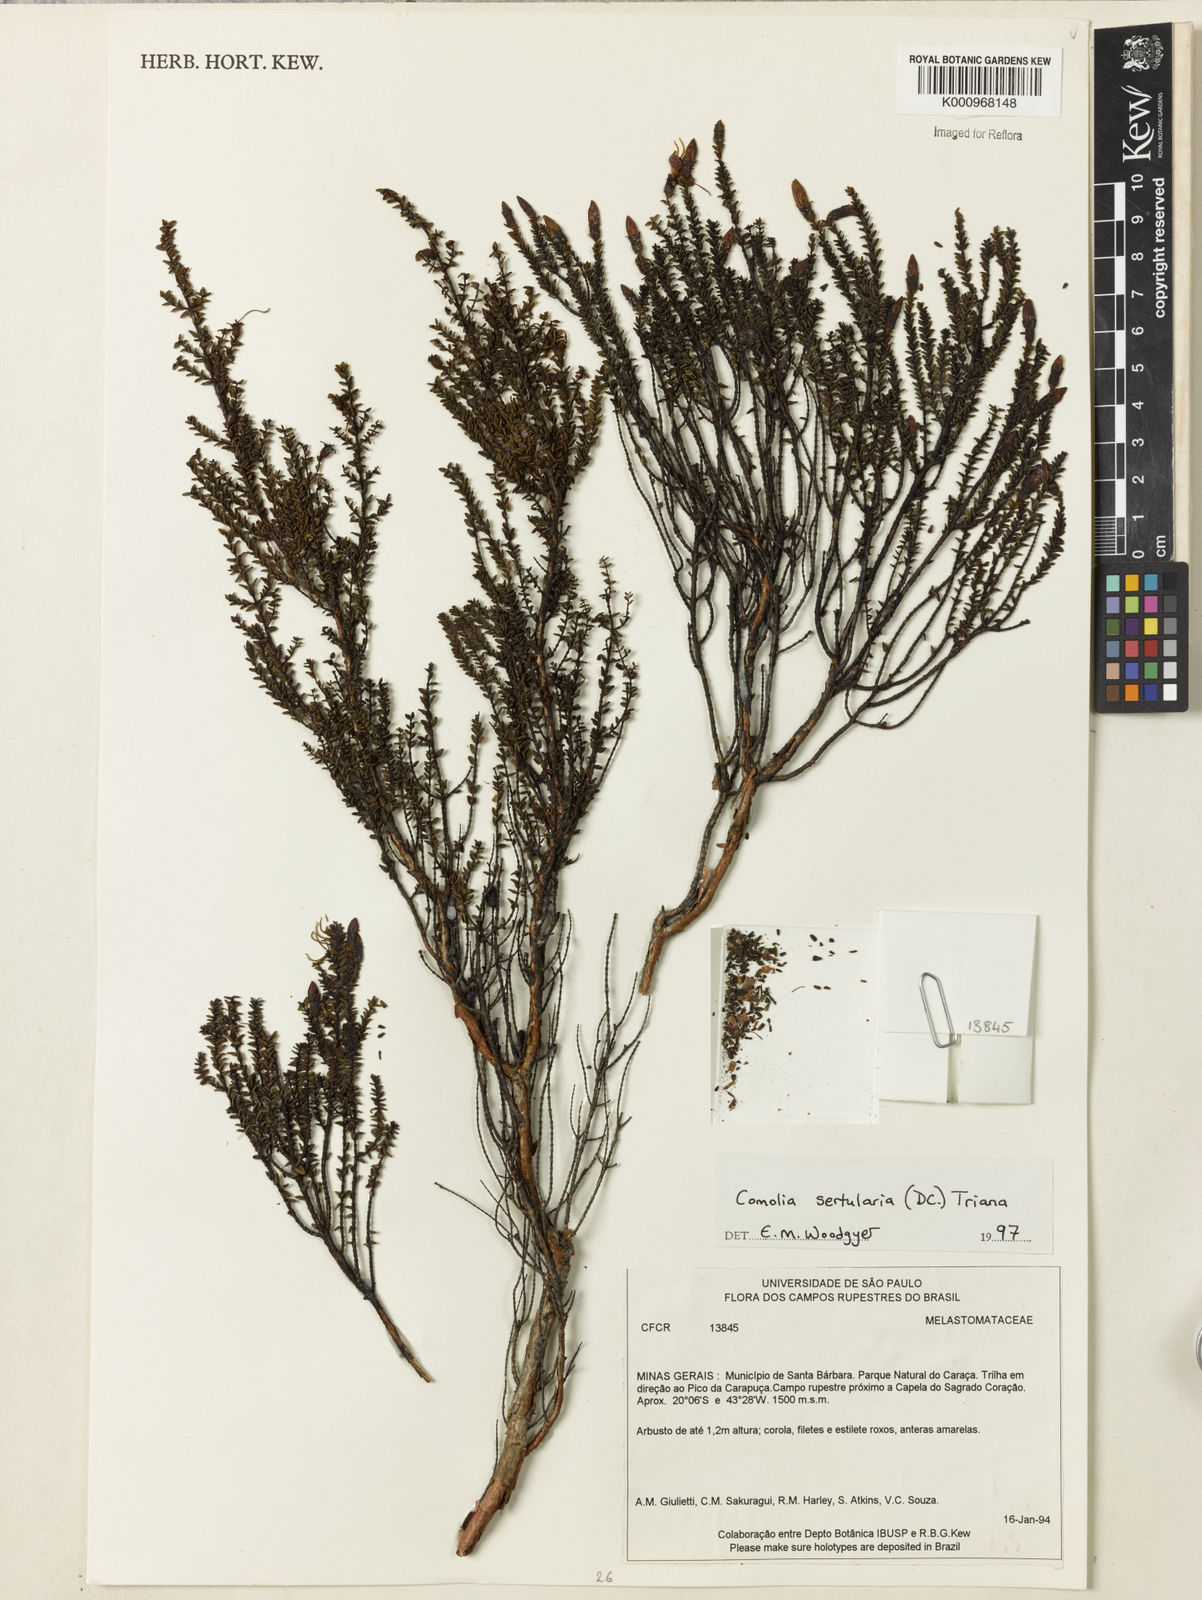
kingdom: Plantae
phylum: Tracheophyta
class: Magnoliopsida
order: Myrtales
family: Melastomataceae
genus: Fritzschia
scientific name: Fritzschia sertularia
